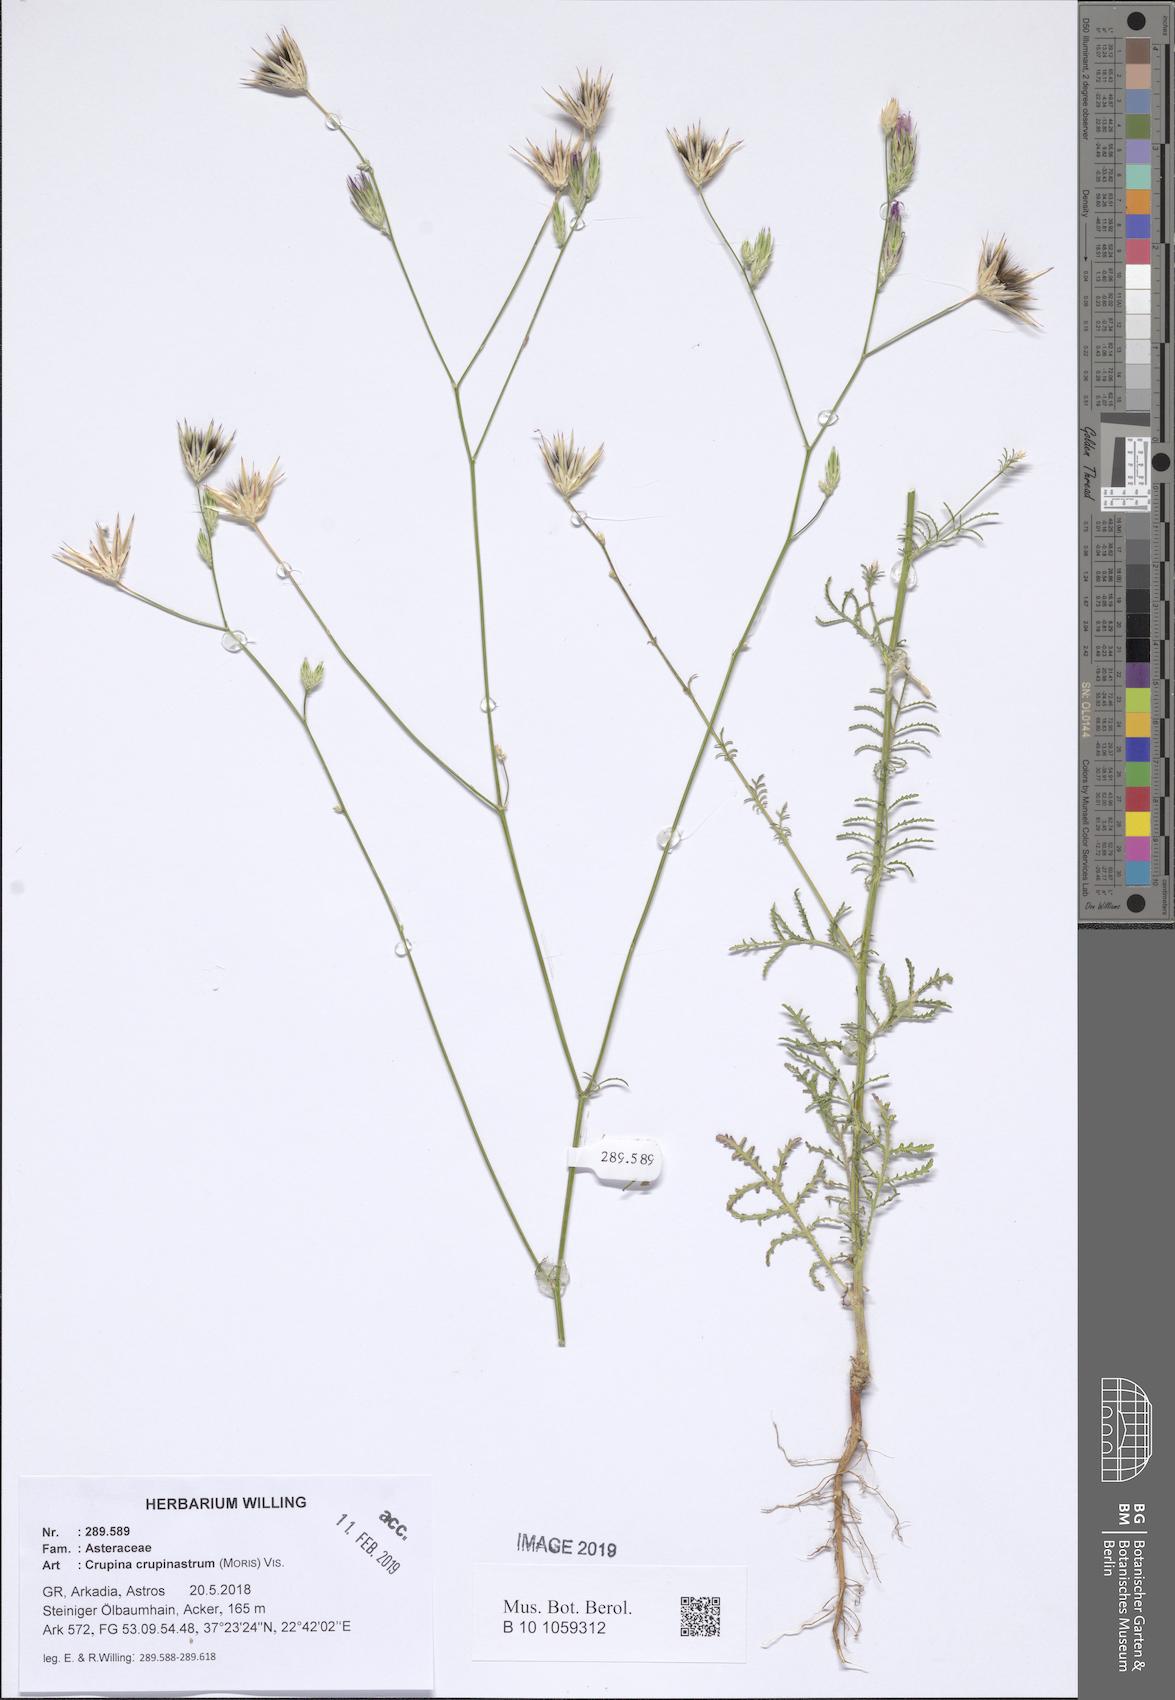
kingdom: Plantae
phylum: Tracheophyta
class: Magnoliopsida
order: Asterales
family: Asteraceae
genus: Crupina
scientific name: Crupina crupinastrum
